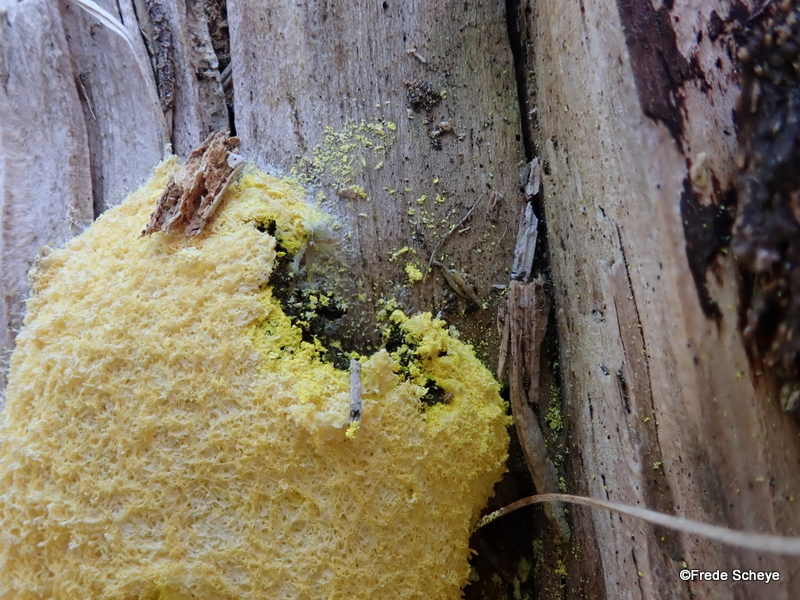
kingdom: Protozoa
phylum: Mycetozoa
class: Myxomycetes
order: Physarales
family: Physaraceae
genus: Fuligo
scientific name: Fuligo septica
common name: gul troldsmør
